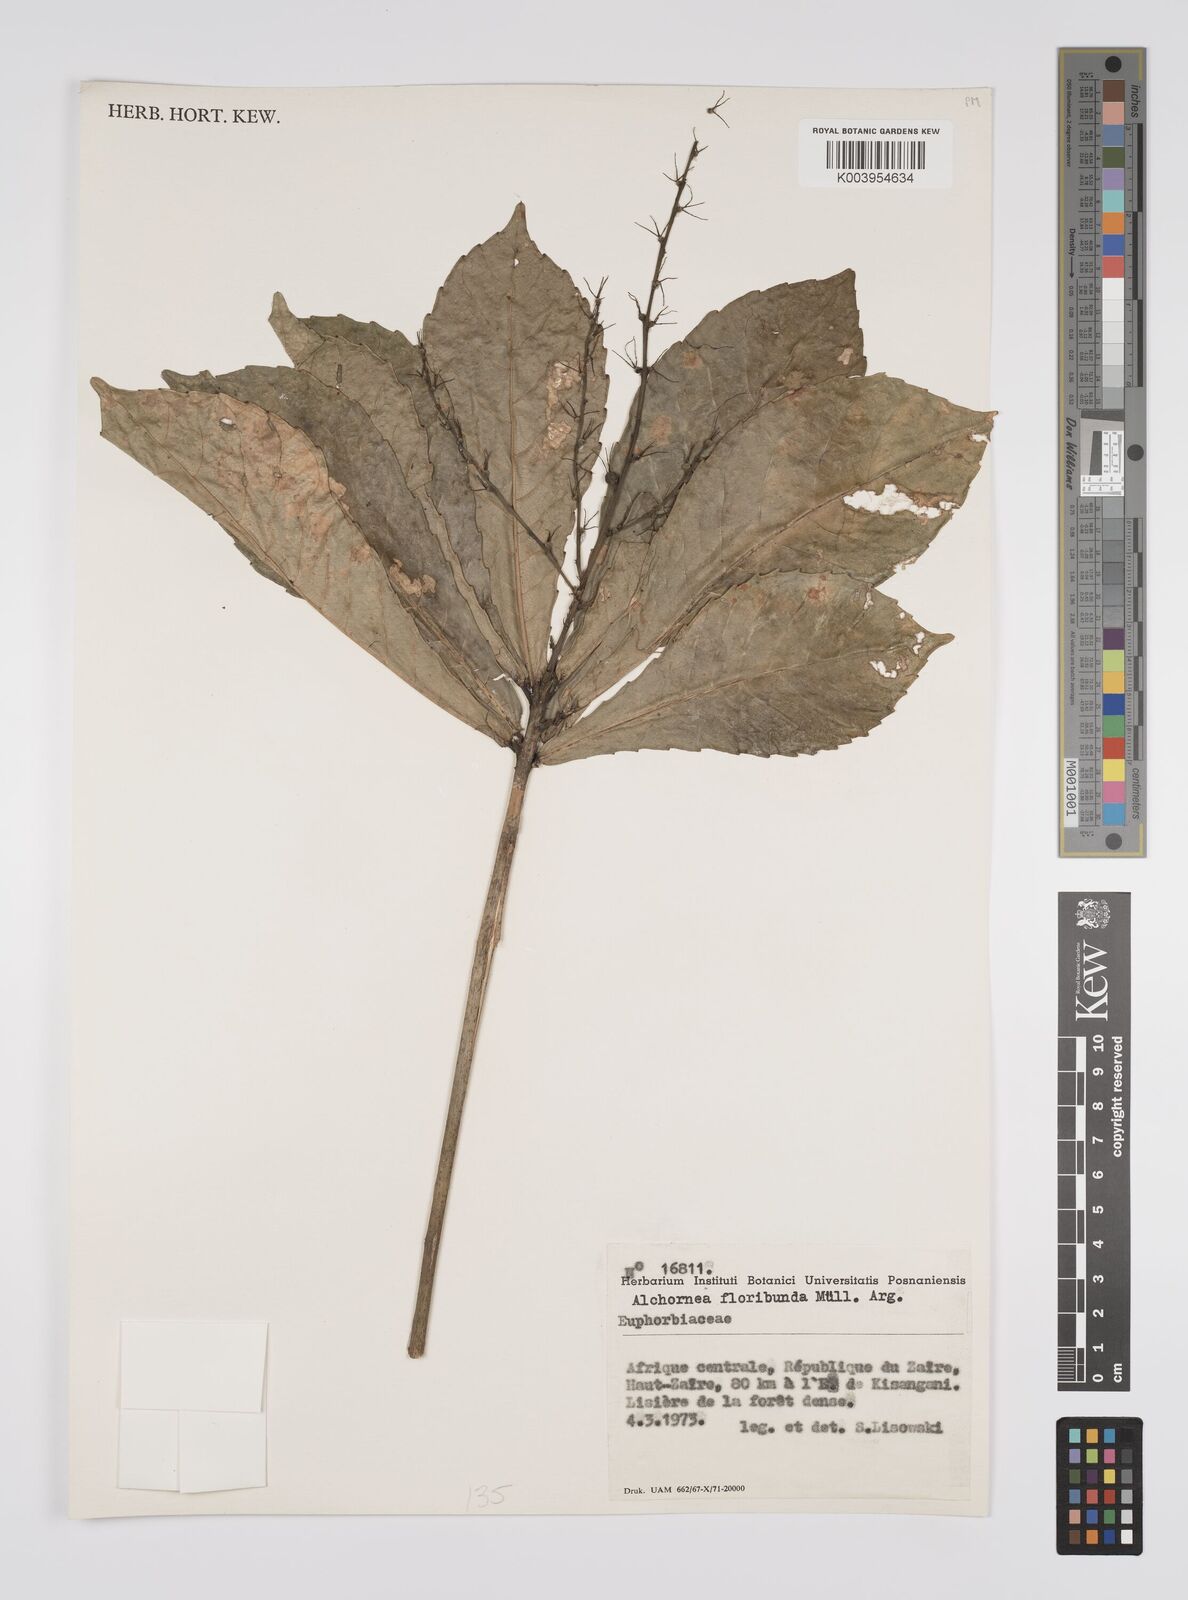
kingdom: Plantae
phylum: Tracheophyta
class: Magnoliopsida
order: Malpighiales
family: Euphorbiaceae
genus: Alchornea
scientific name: Alchornea floribunda
